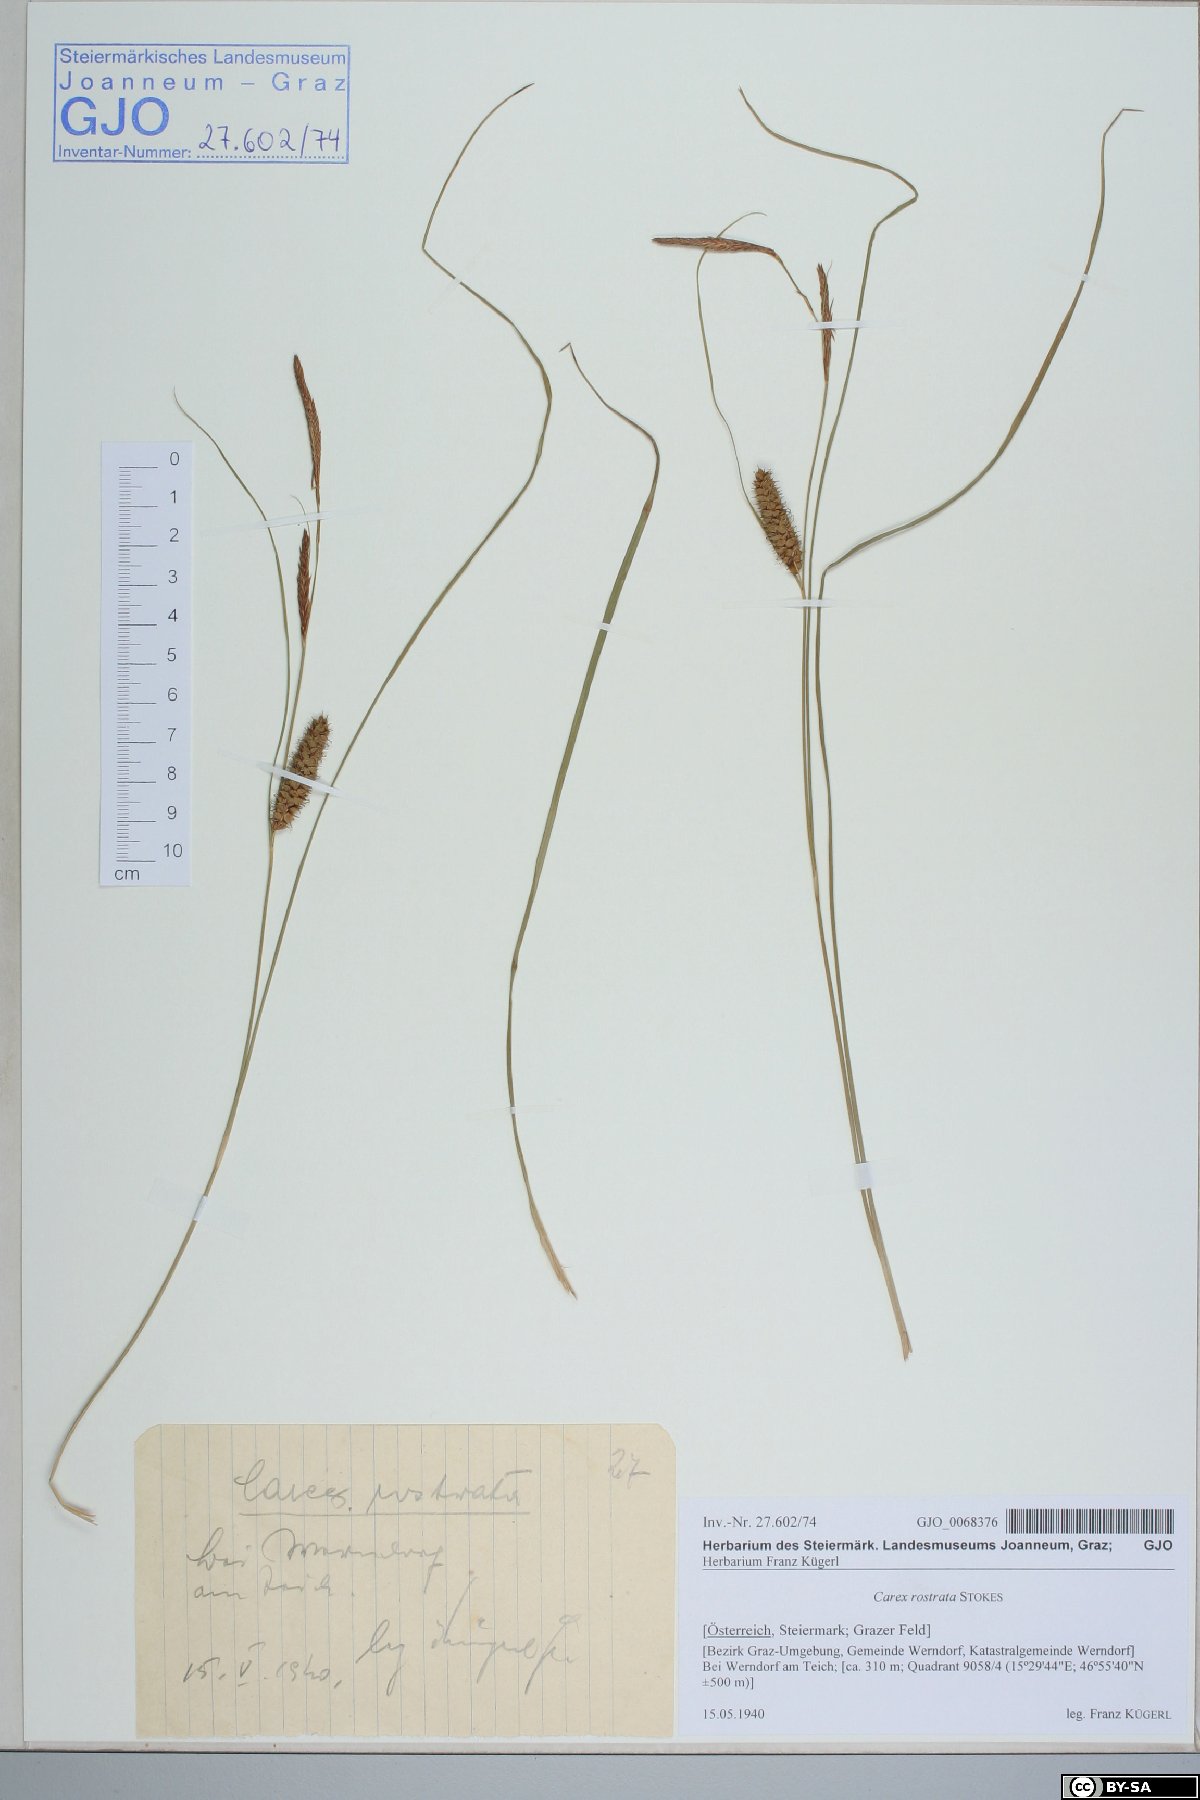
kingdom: Plantae
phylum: Tracheophyta
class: Liliopsida
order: Poales
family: Cyperaceae
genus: Carex
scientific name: Carex rostrata
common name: Bottle sedge
